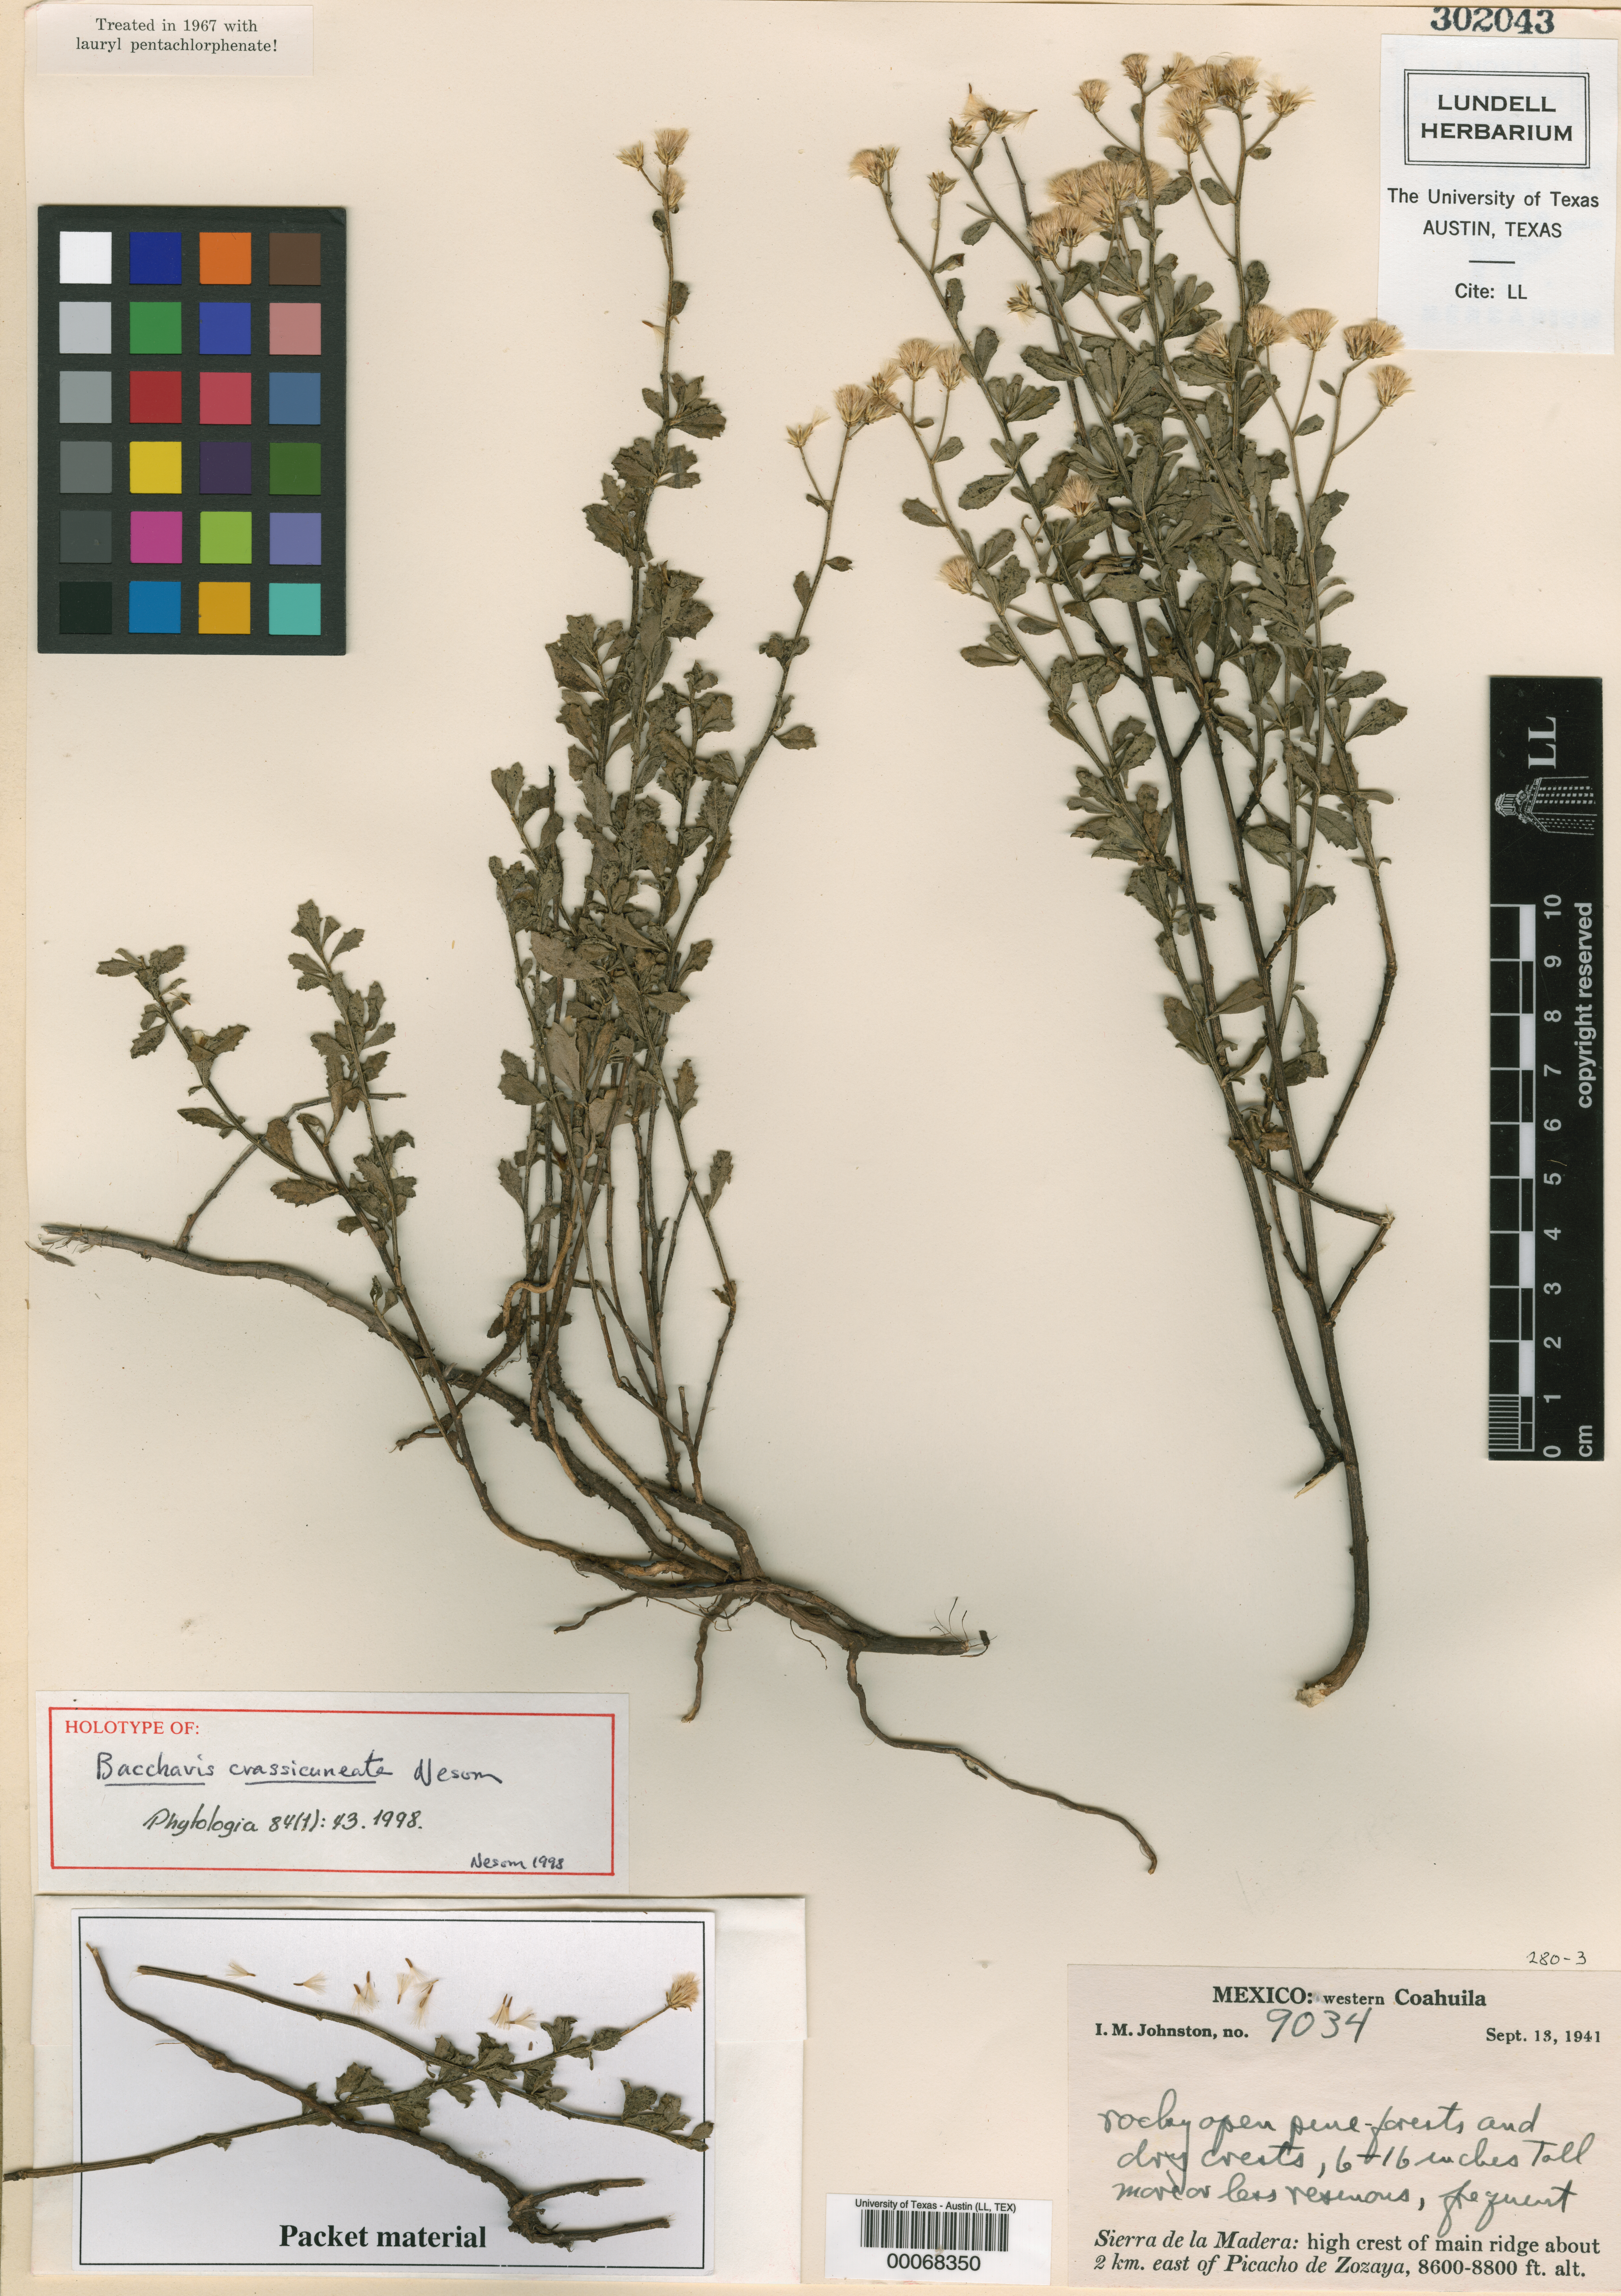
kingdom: Plantae
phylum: Tracheophyta
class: Magnoliopsida
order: Malpighiales
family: Hypericaceae
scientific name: Hypericaceae
